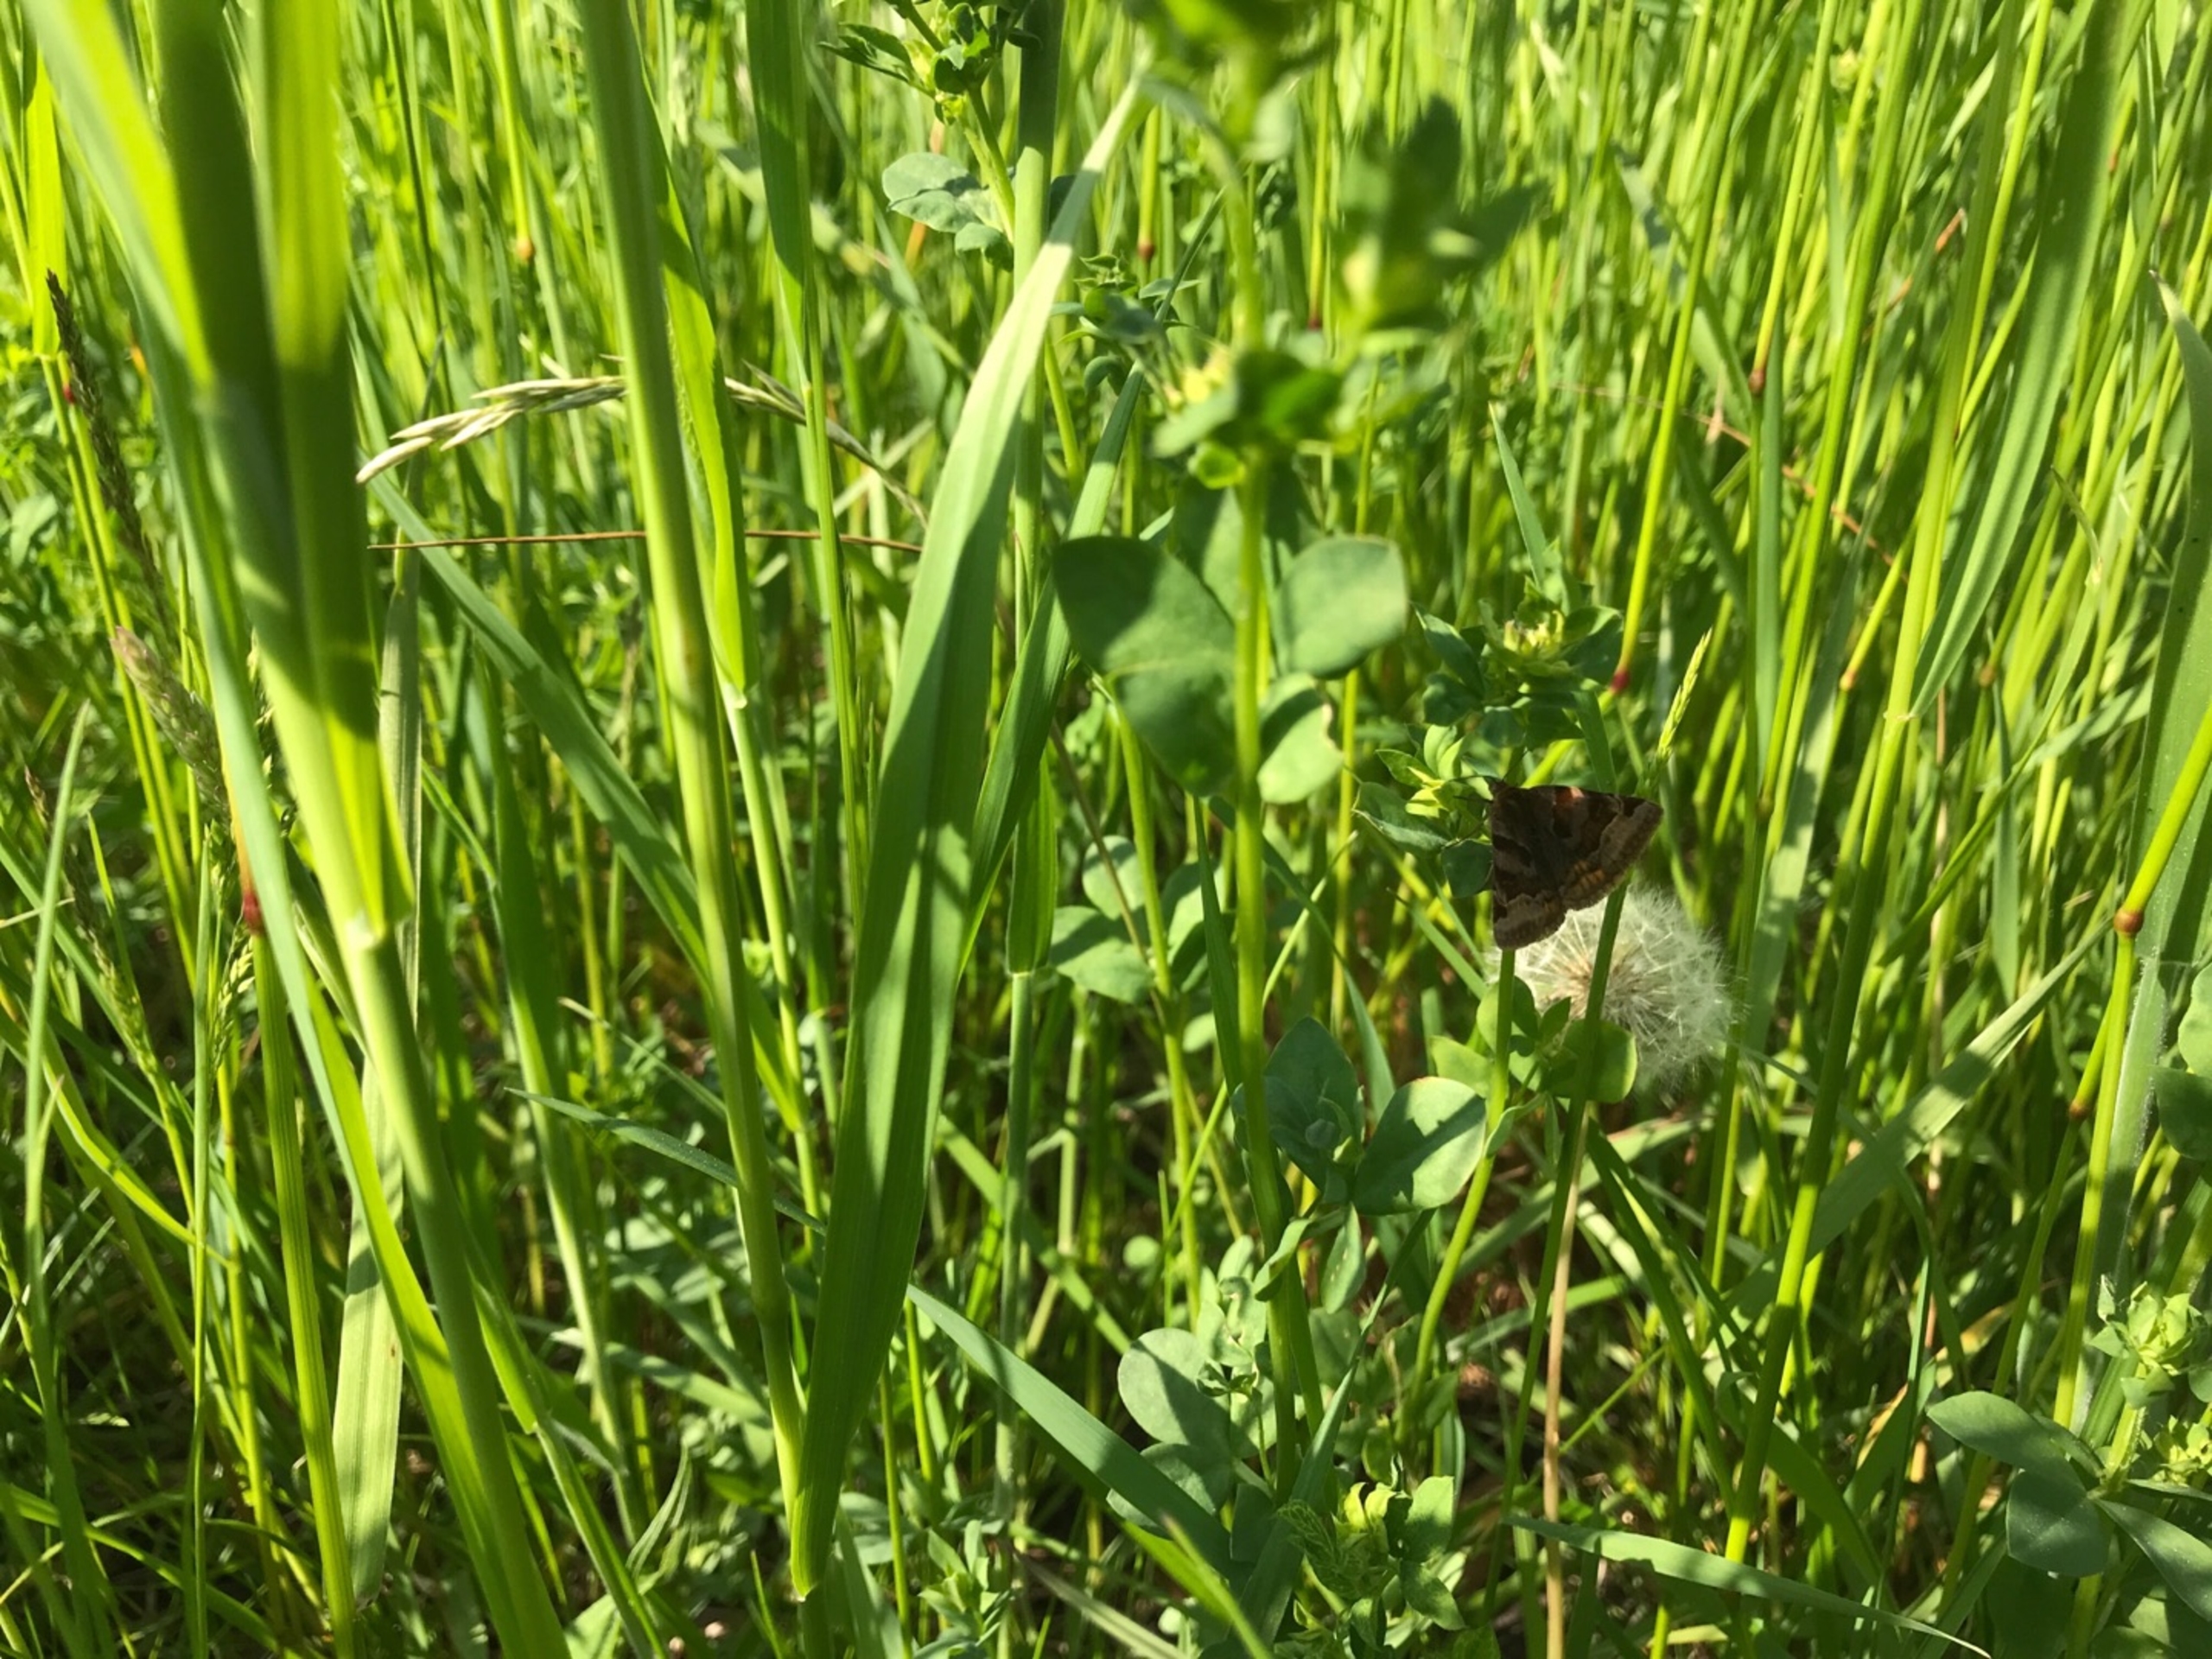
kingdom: Animalia
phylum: Arthropoda
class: Insecta
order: Lepidoptera
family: Erebidae
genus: Euclidia
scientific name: Euclidia glyphica
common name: Brun kløverugle
